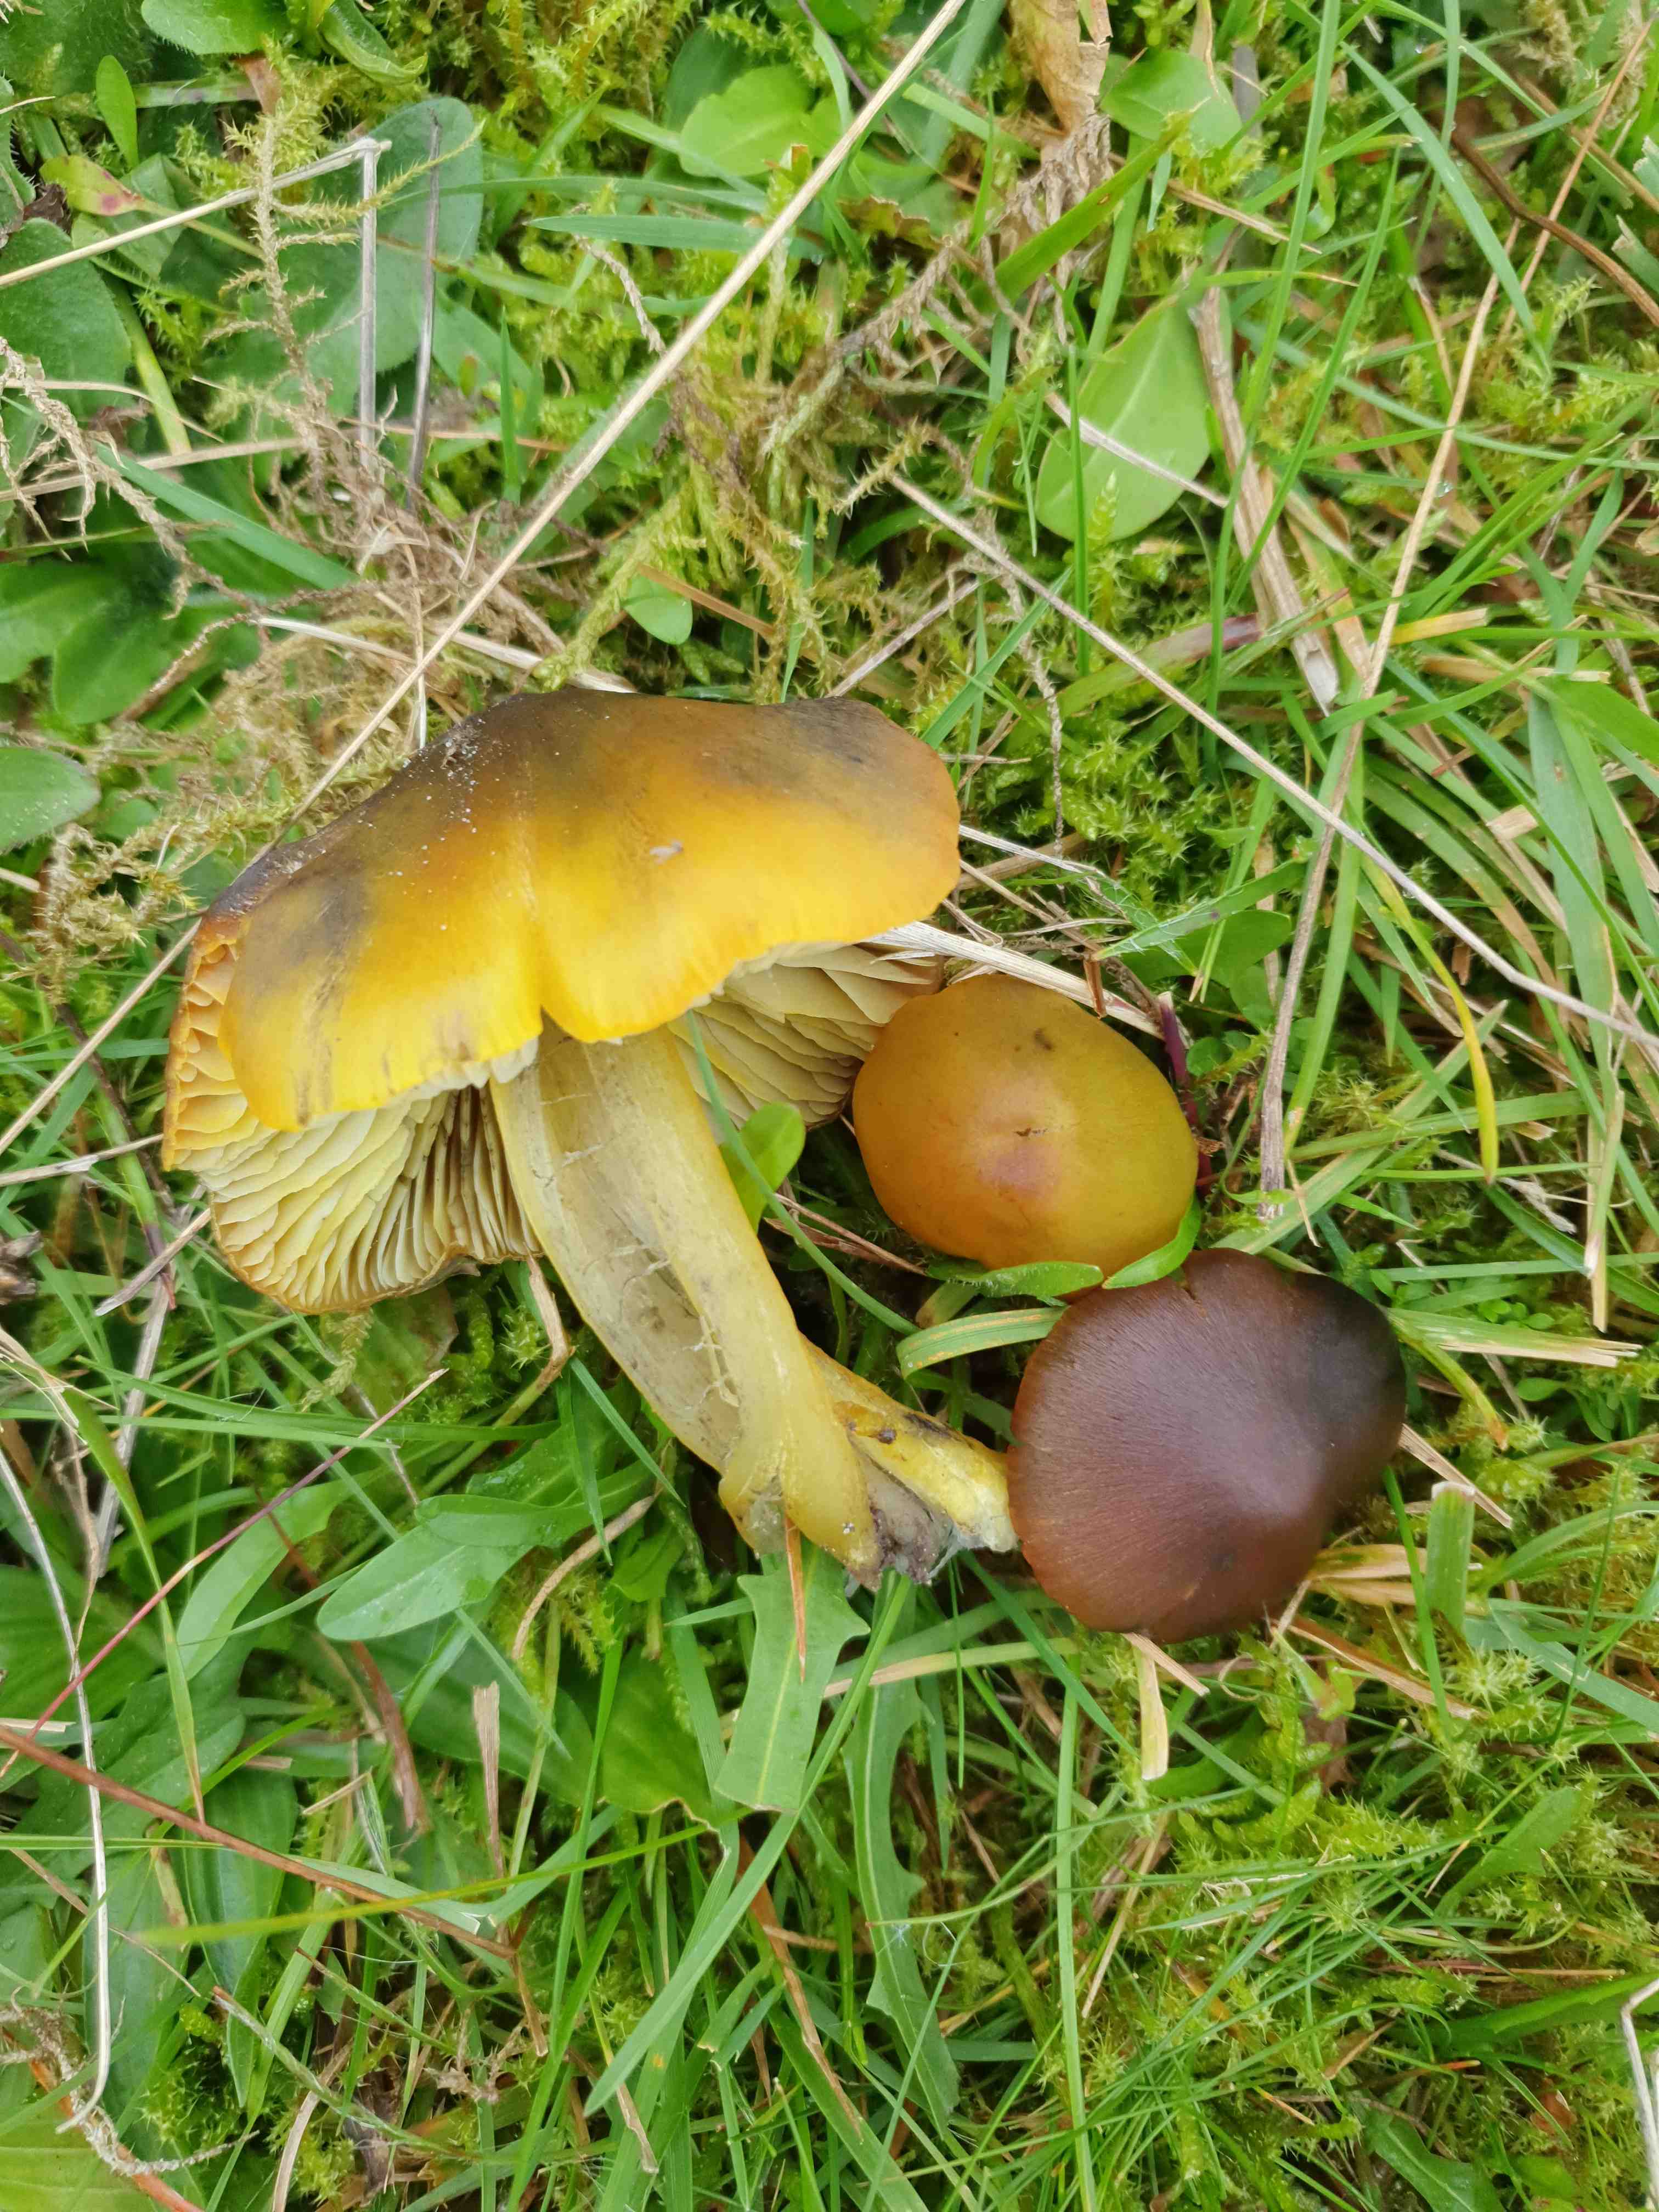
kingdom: Fungi
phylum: Basidiomycota
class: Agaricomycetes
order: Agaricales
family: Hygrophoraceae
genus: Hygrocybe
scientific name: Hygrocybe conica
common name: kegle-vokshat
